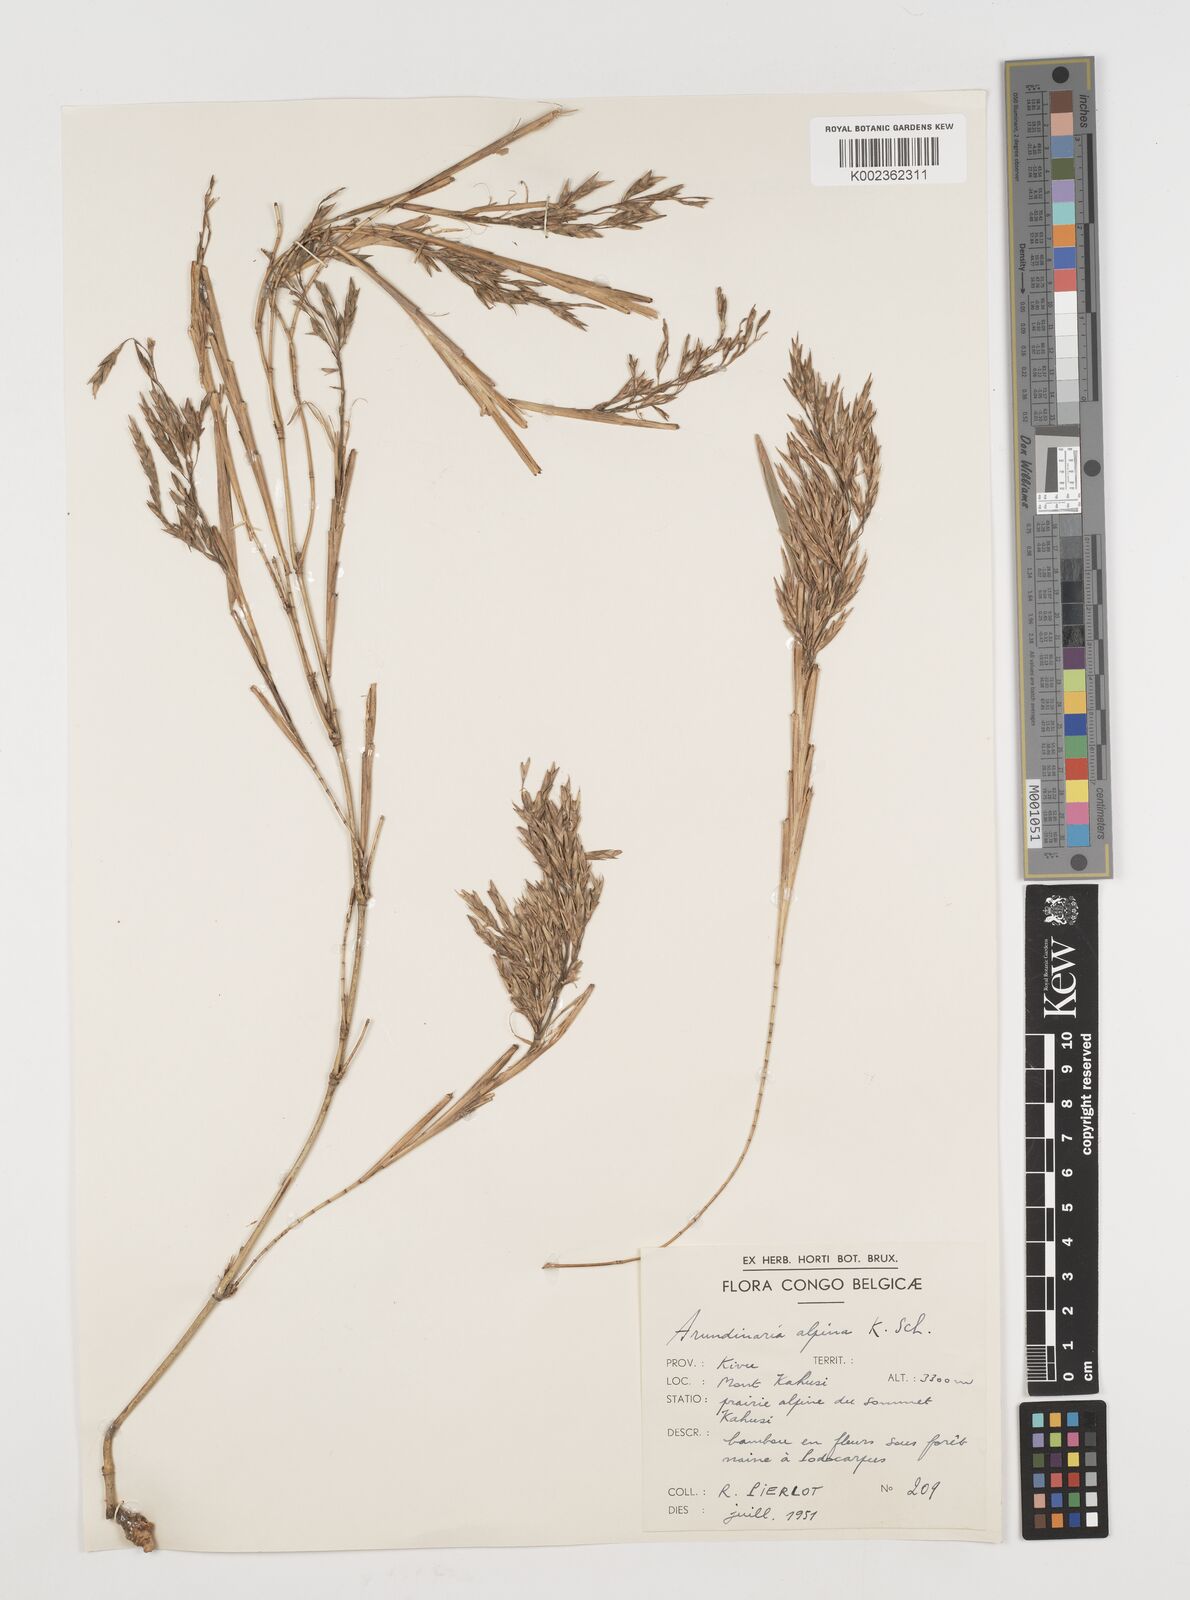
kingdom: Plantae
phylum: Tracheophyta
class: Liliopsida
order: Poales
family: Poaceae
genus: Oldeania
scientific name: Oldeania alpina
